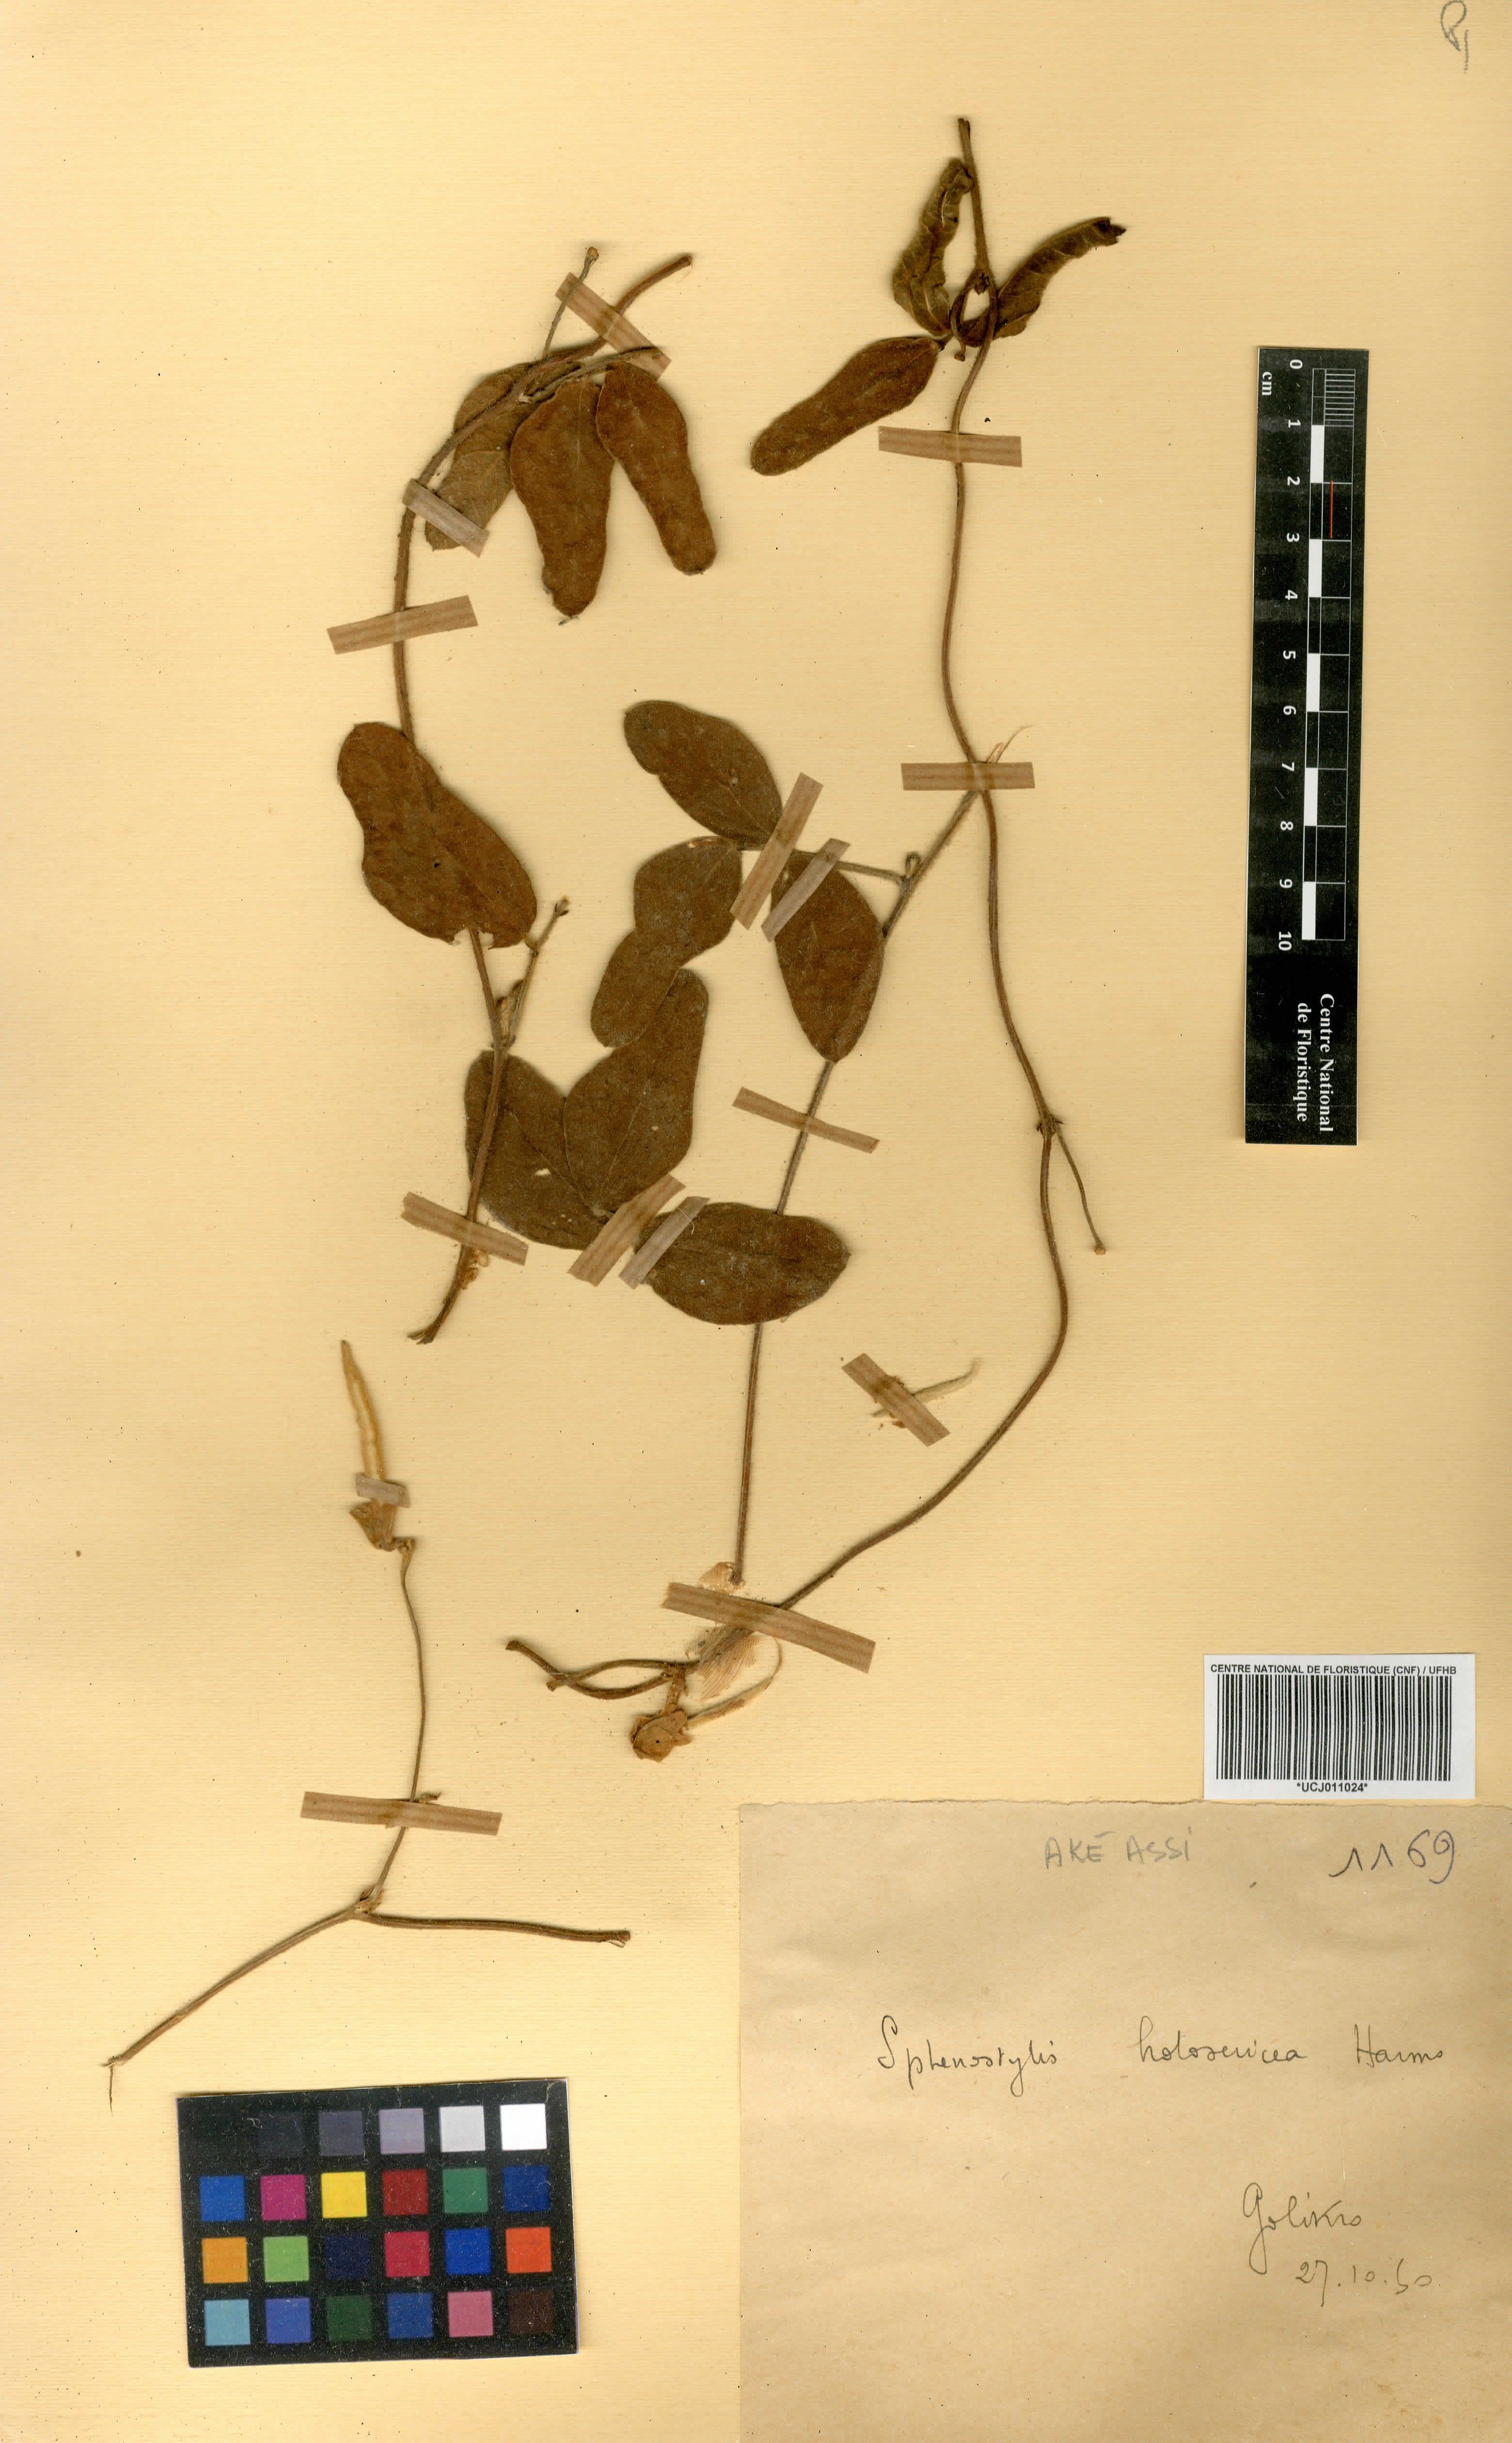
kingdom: Plantae
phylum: Tracheophyta
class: Magnoliopsida
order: Fabales
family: Fabaceae
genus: Nesphostylis
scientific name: Nesphostylis holosericea
